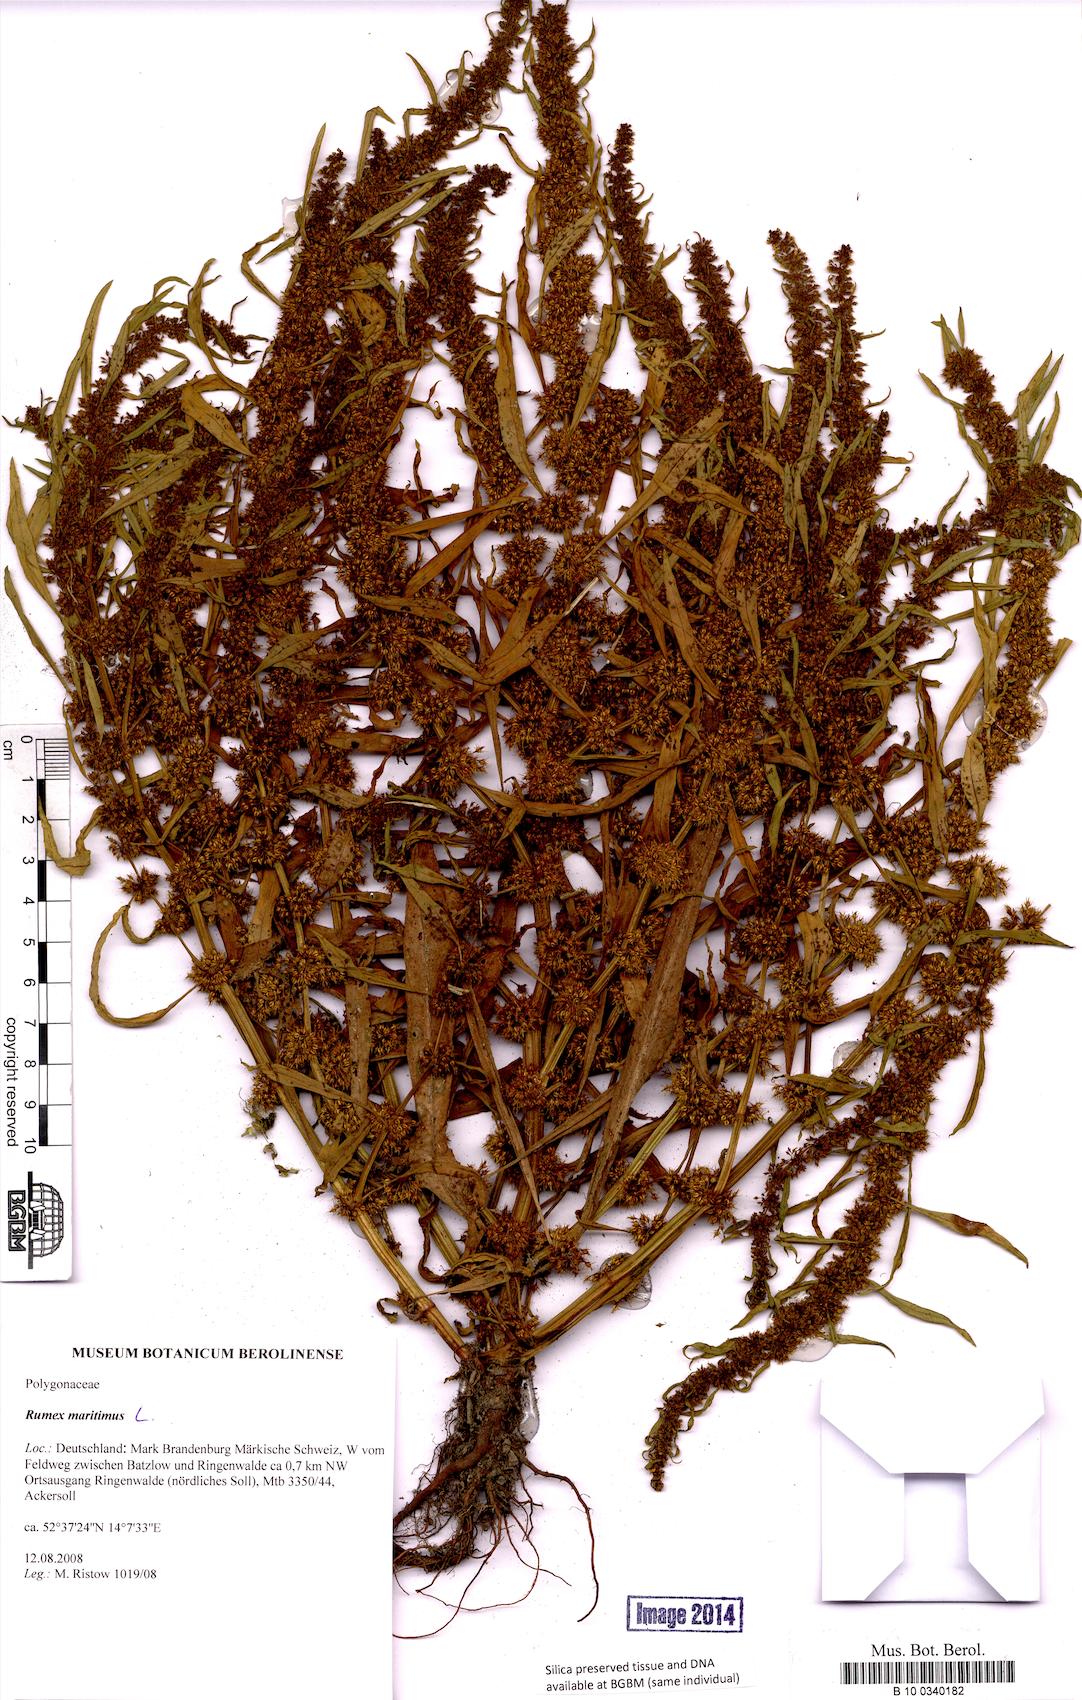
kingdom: Plantae
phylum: Tracheophyta
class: Magnoliopsida
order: Caryophyllales
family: Polygonaceae
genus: Rumex
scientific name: Rumex maritimus
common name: Golden dock
